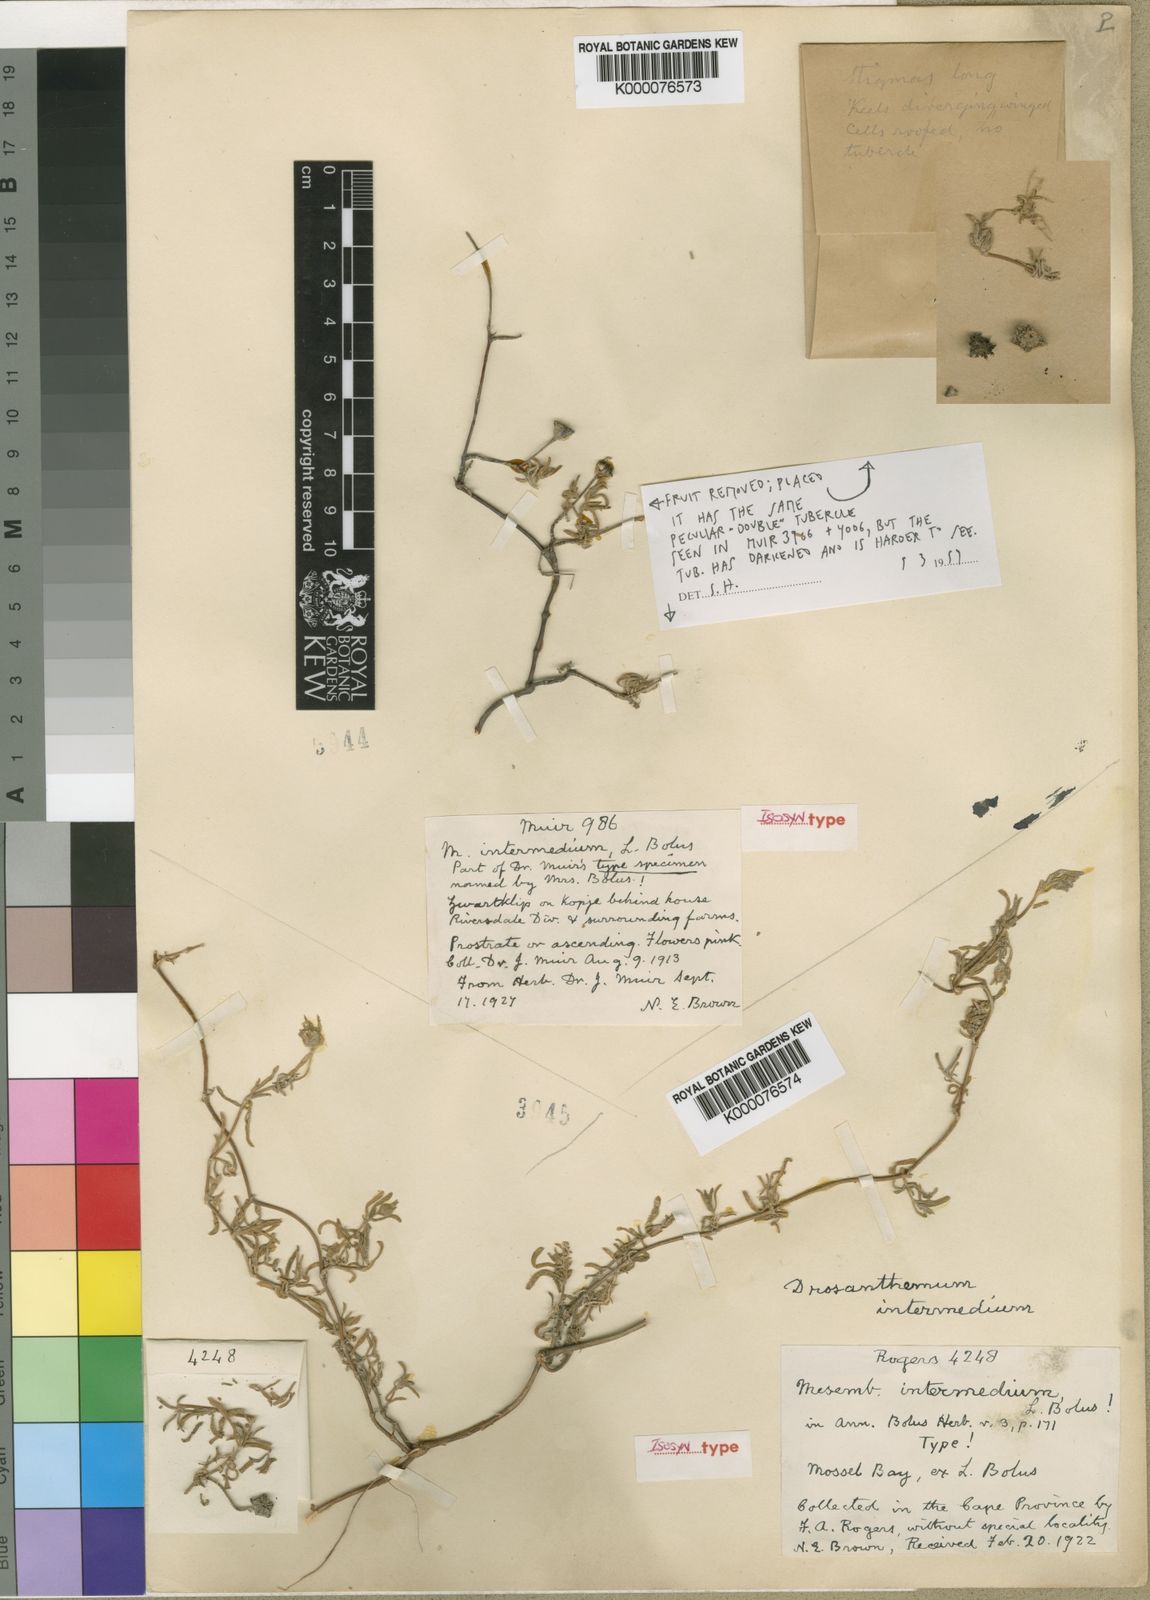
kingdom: Plantae
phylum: Tracheophyta
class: Magnoliopsida
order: Caryophyllales
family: Aizoaceae
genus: Drosanthemum
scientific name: Drosanthemum calcareum
